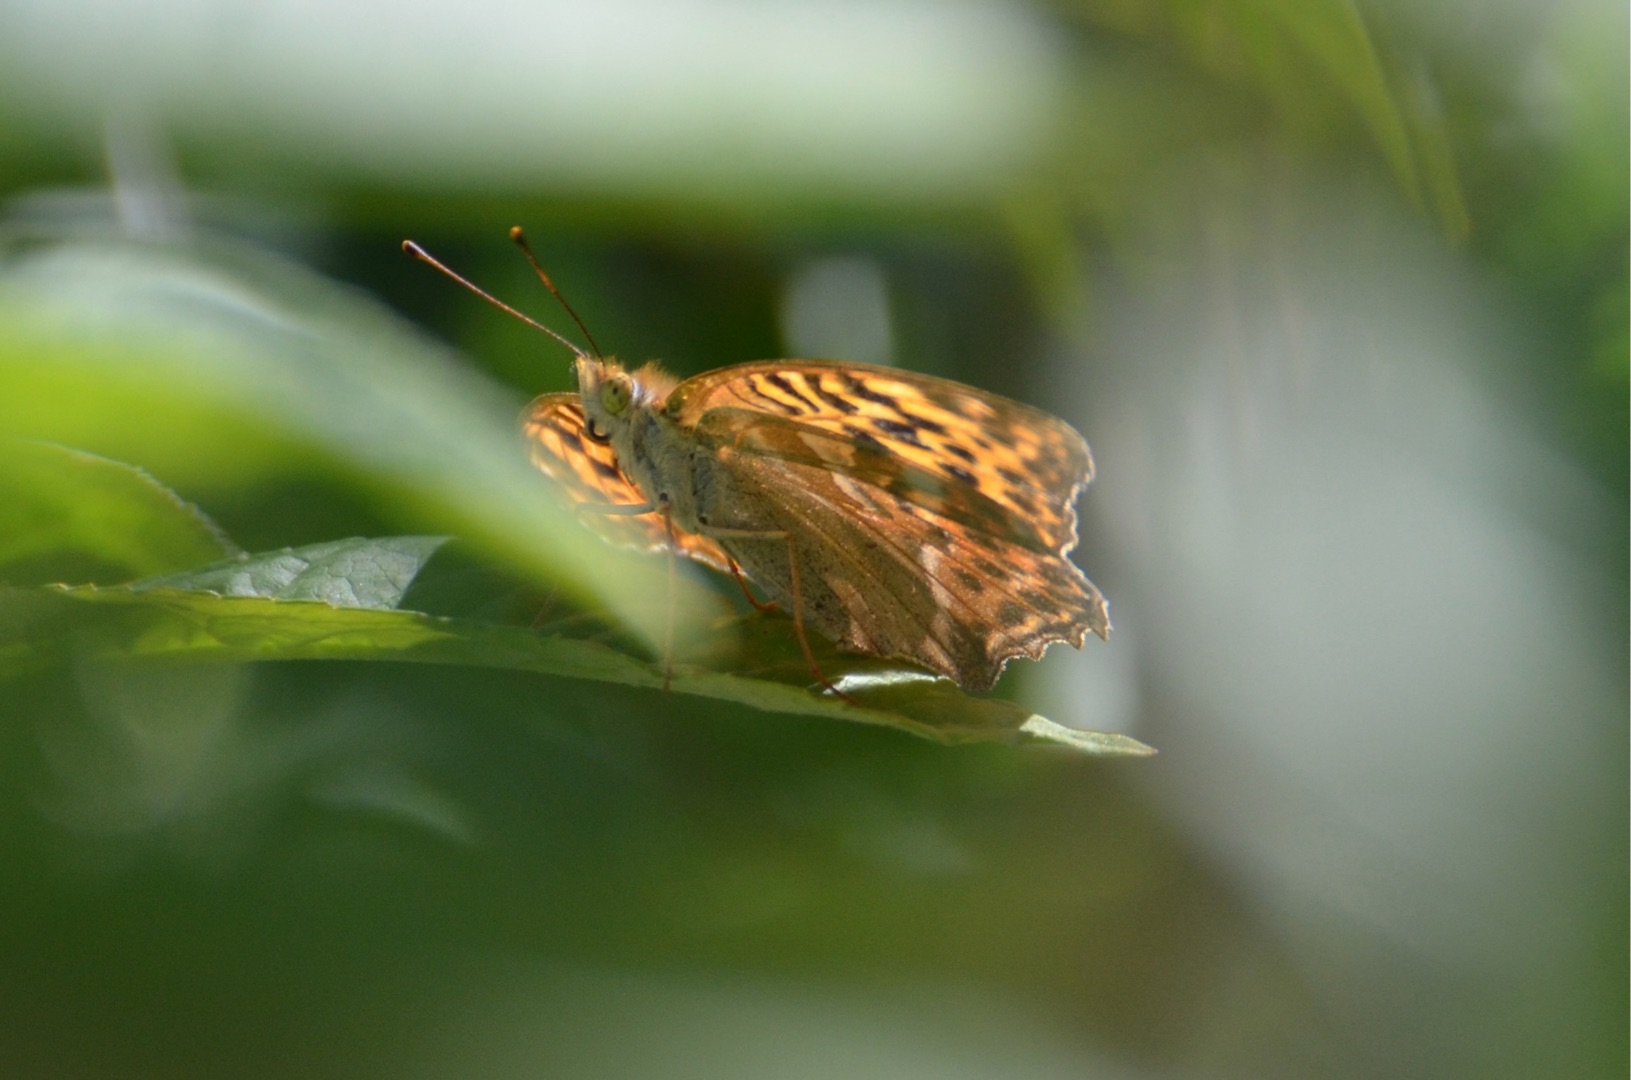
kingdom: Animalia
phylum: Arthropoda
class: Insecta
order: Lepidoptera
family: Nymphalidae
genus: Argynnis
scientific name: Argynnis paphia
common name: Kejserkåbe
